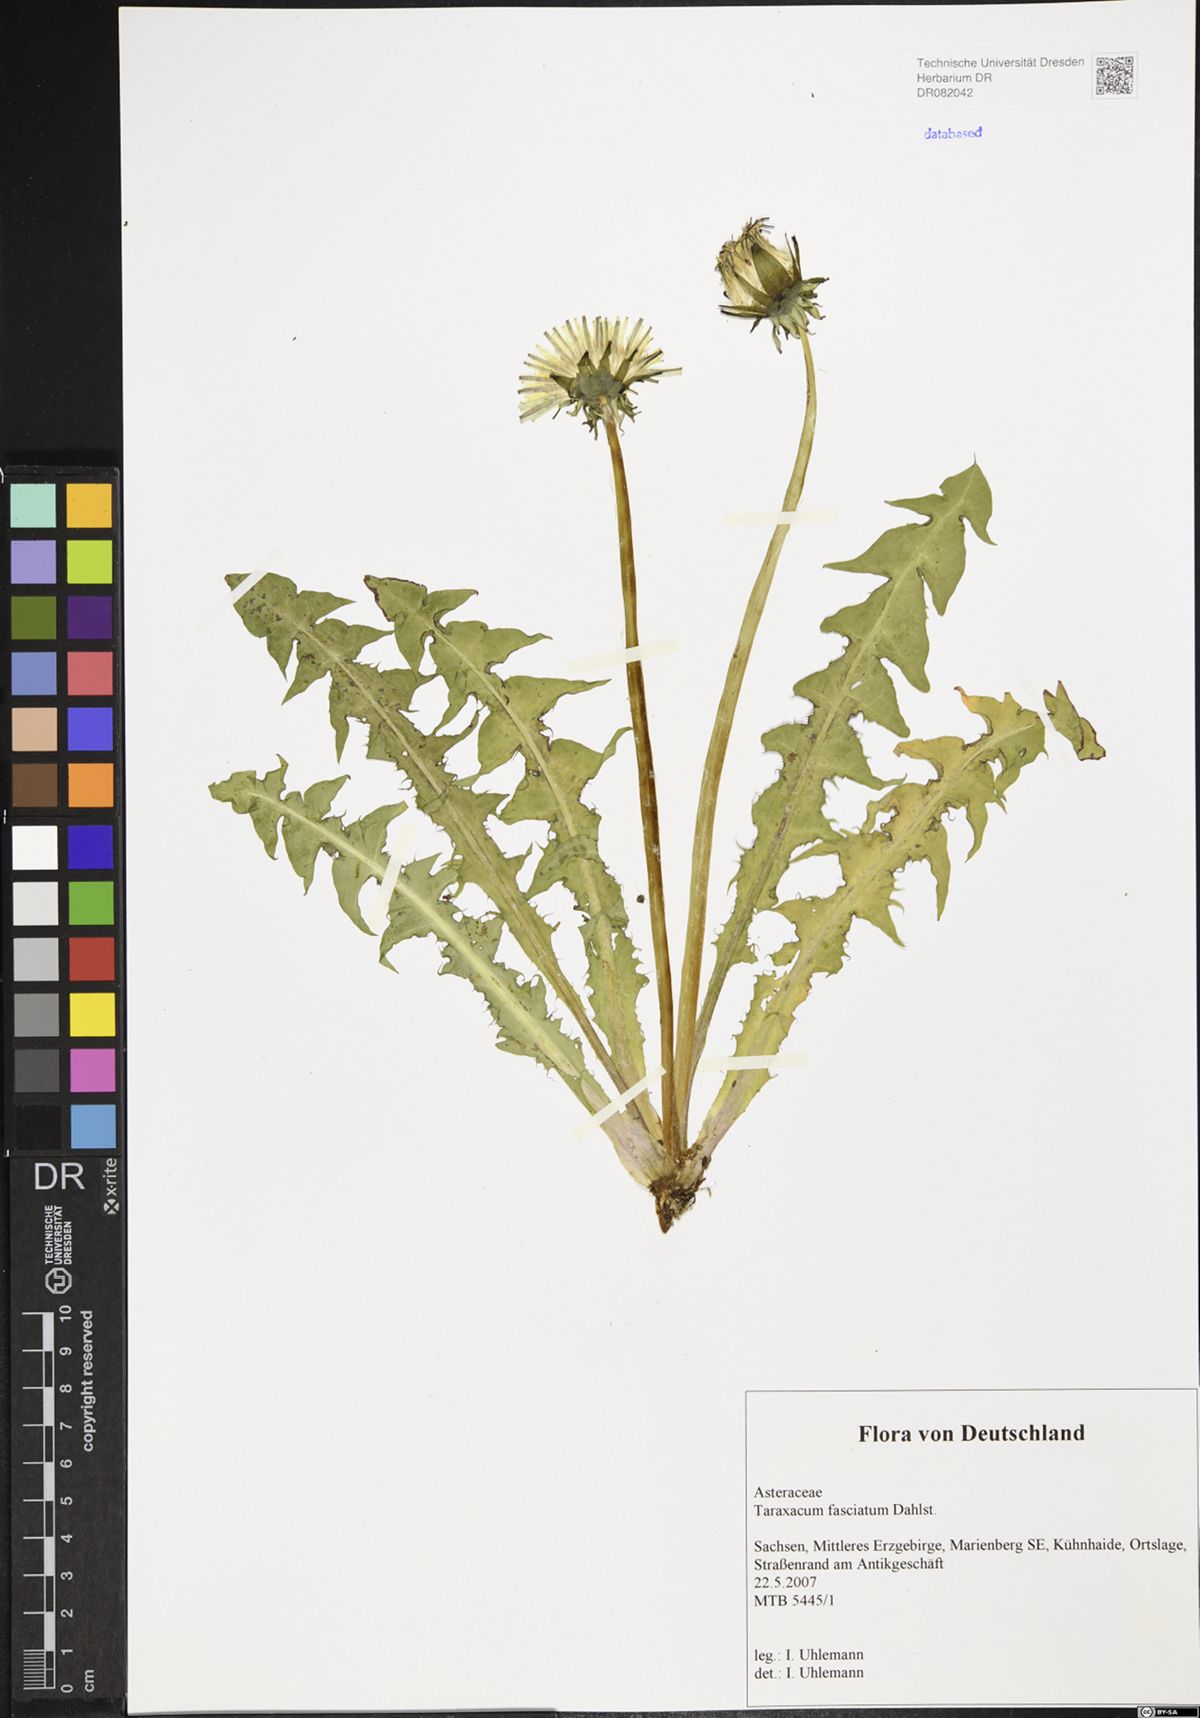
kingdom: Plantae
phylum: Tracheophyta
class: Magnoliopsida
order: Asterales
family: Asteraceae
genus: Taraxacum
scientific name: Taraxacum fasciatum
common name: Dense-bracted dandelion
